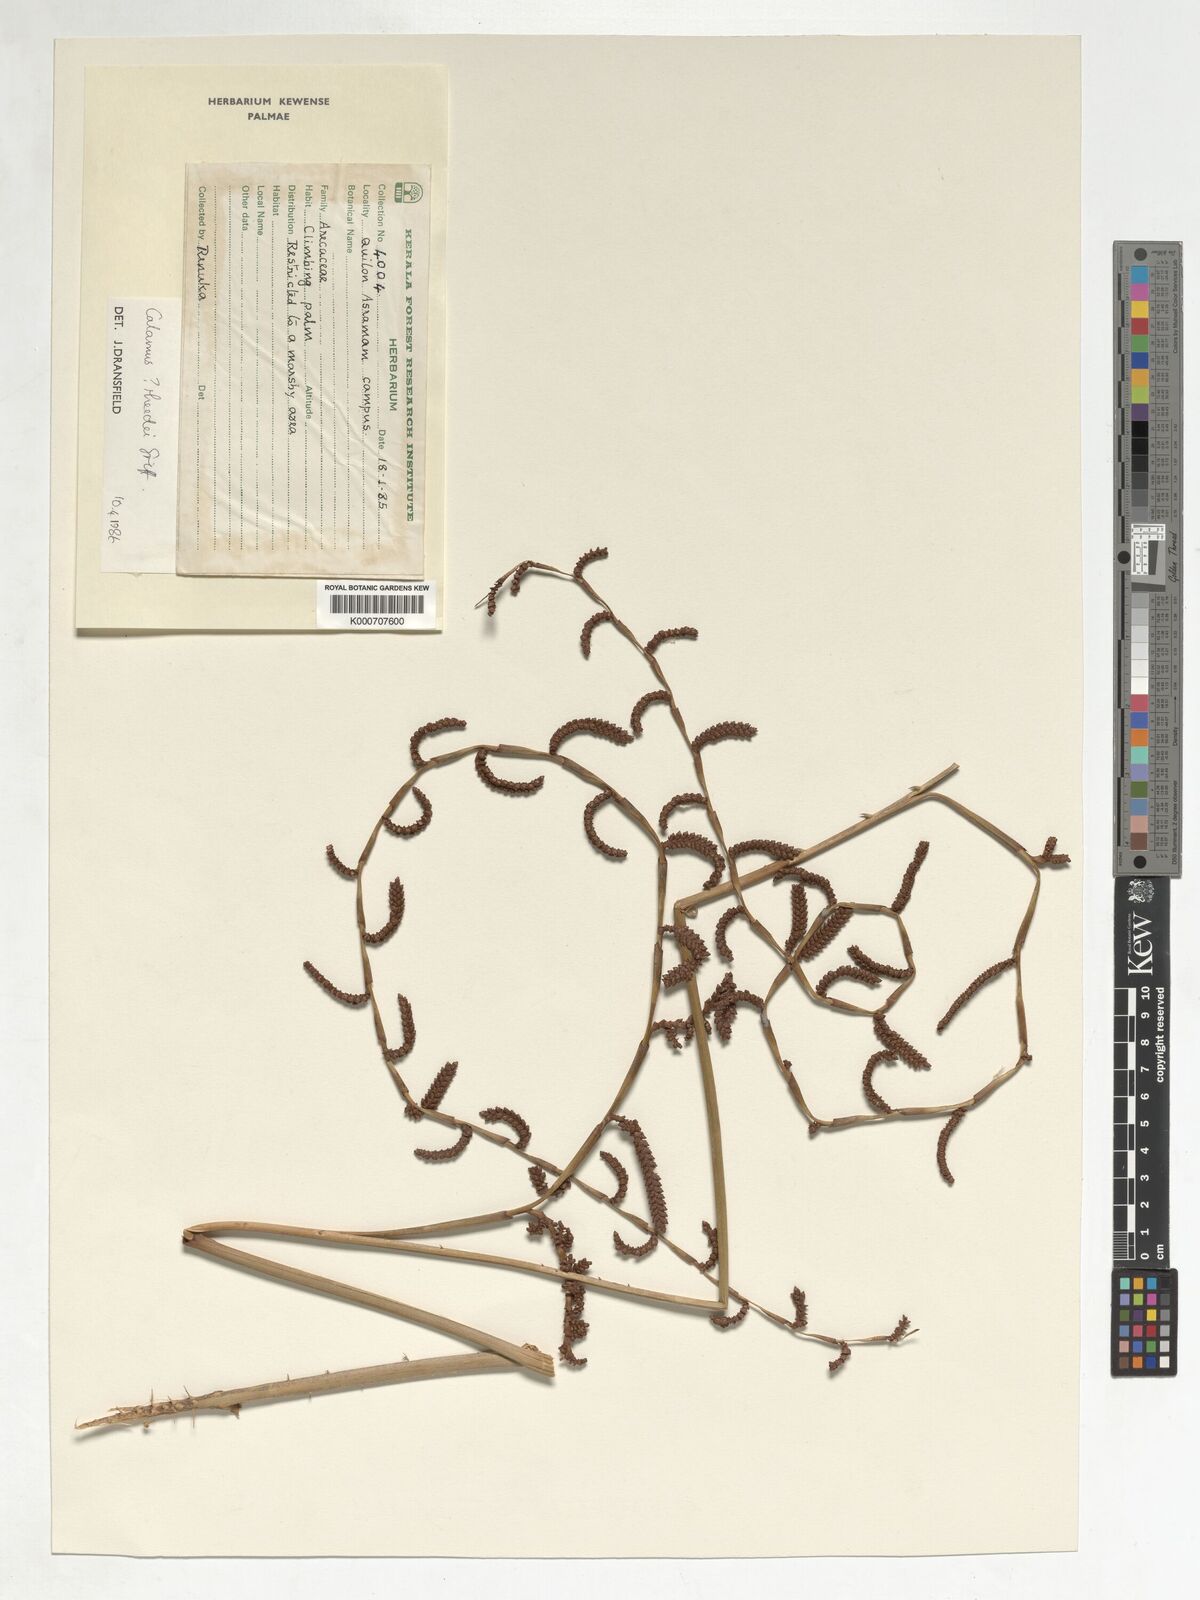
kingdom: Plantae
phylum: Tracheophyta
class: Liliopsida
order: Arecales
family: Arecaceae
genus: Calamus
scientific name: Calamus rheedei
